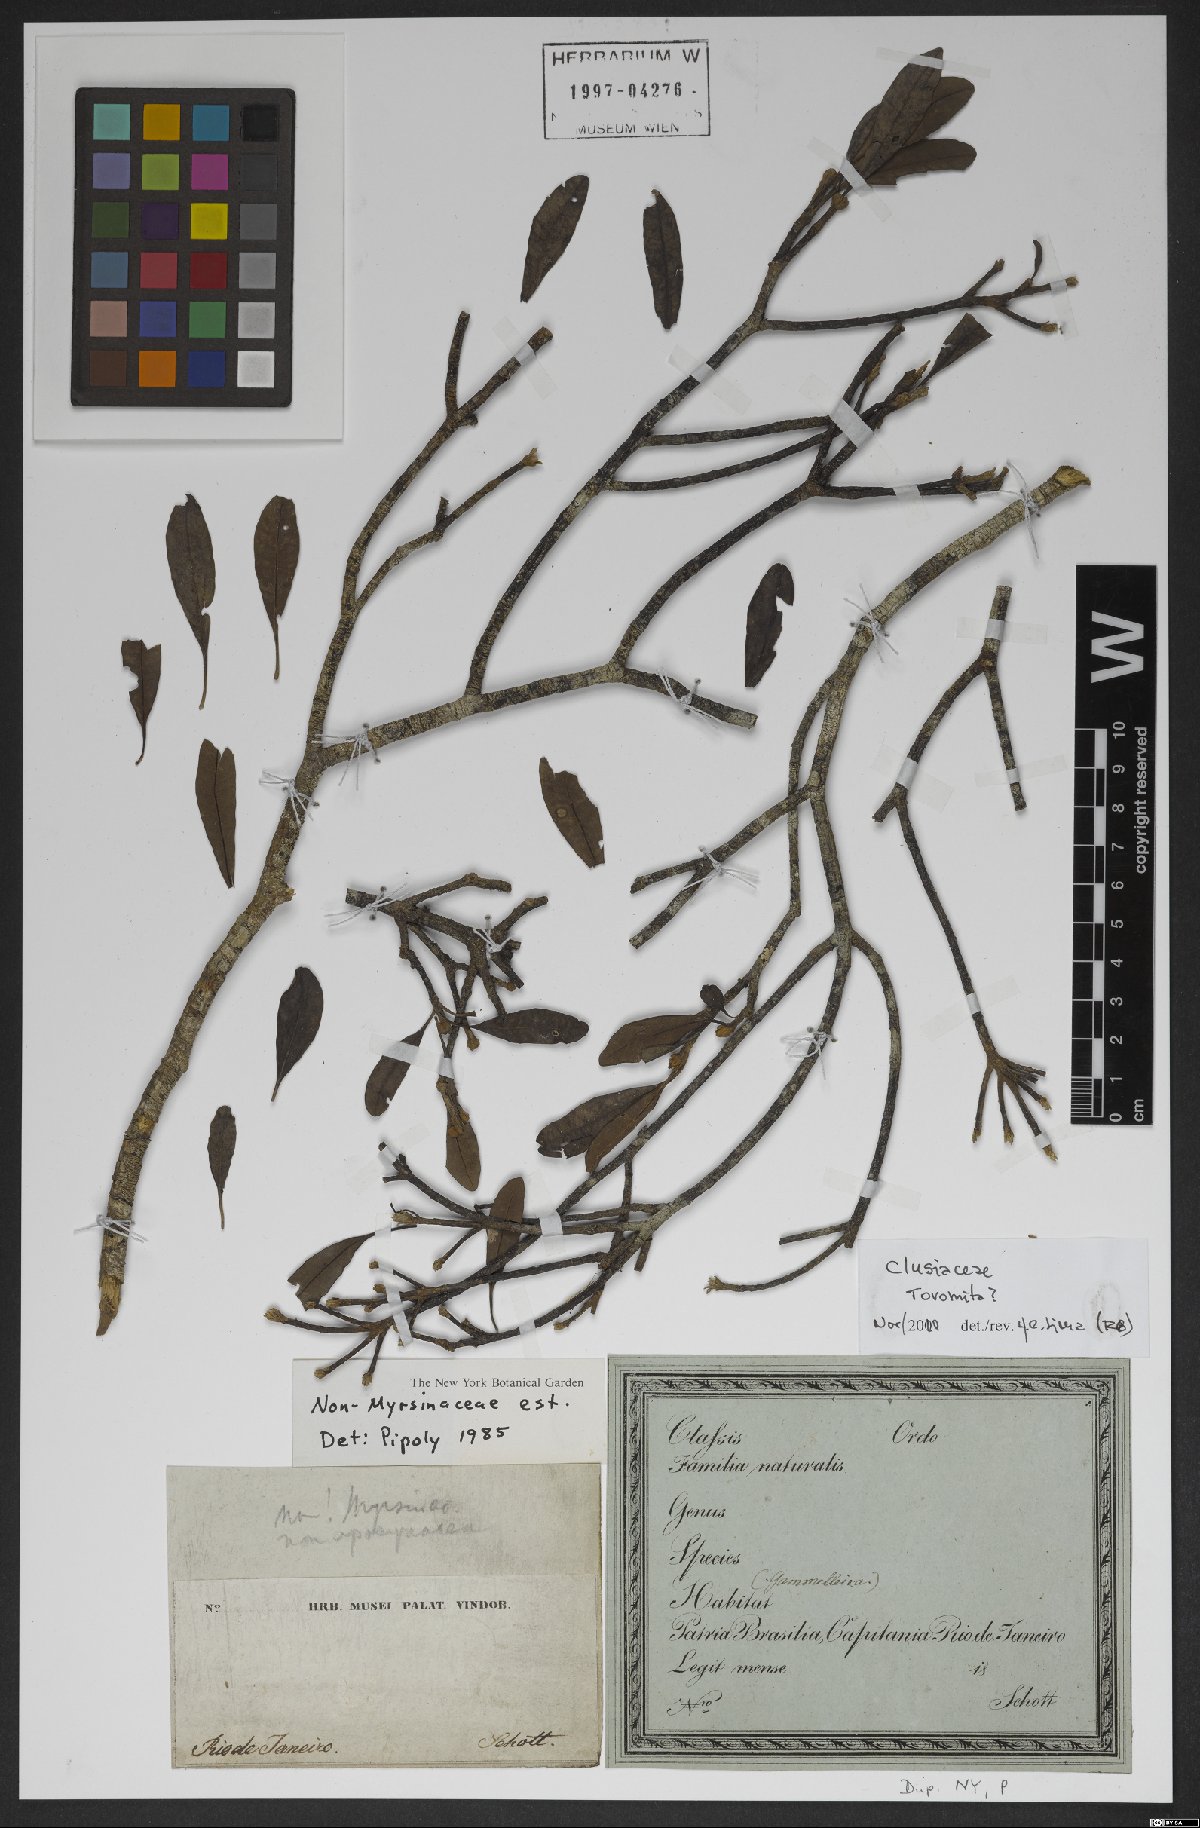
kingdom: Plantae
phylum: Tracheophyta
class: Magnoliopsida
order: Malpighiales
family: Clusiaceae
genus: Tovomita
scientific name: Tovomita
